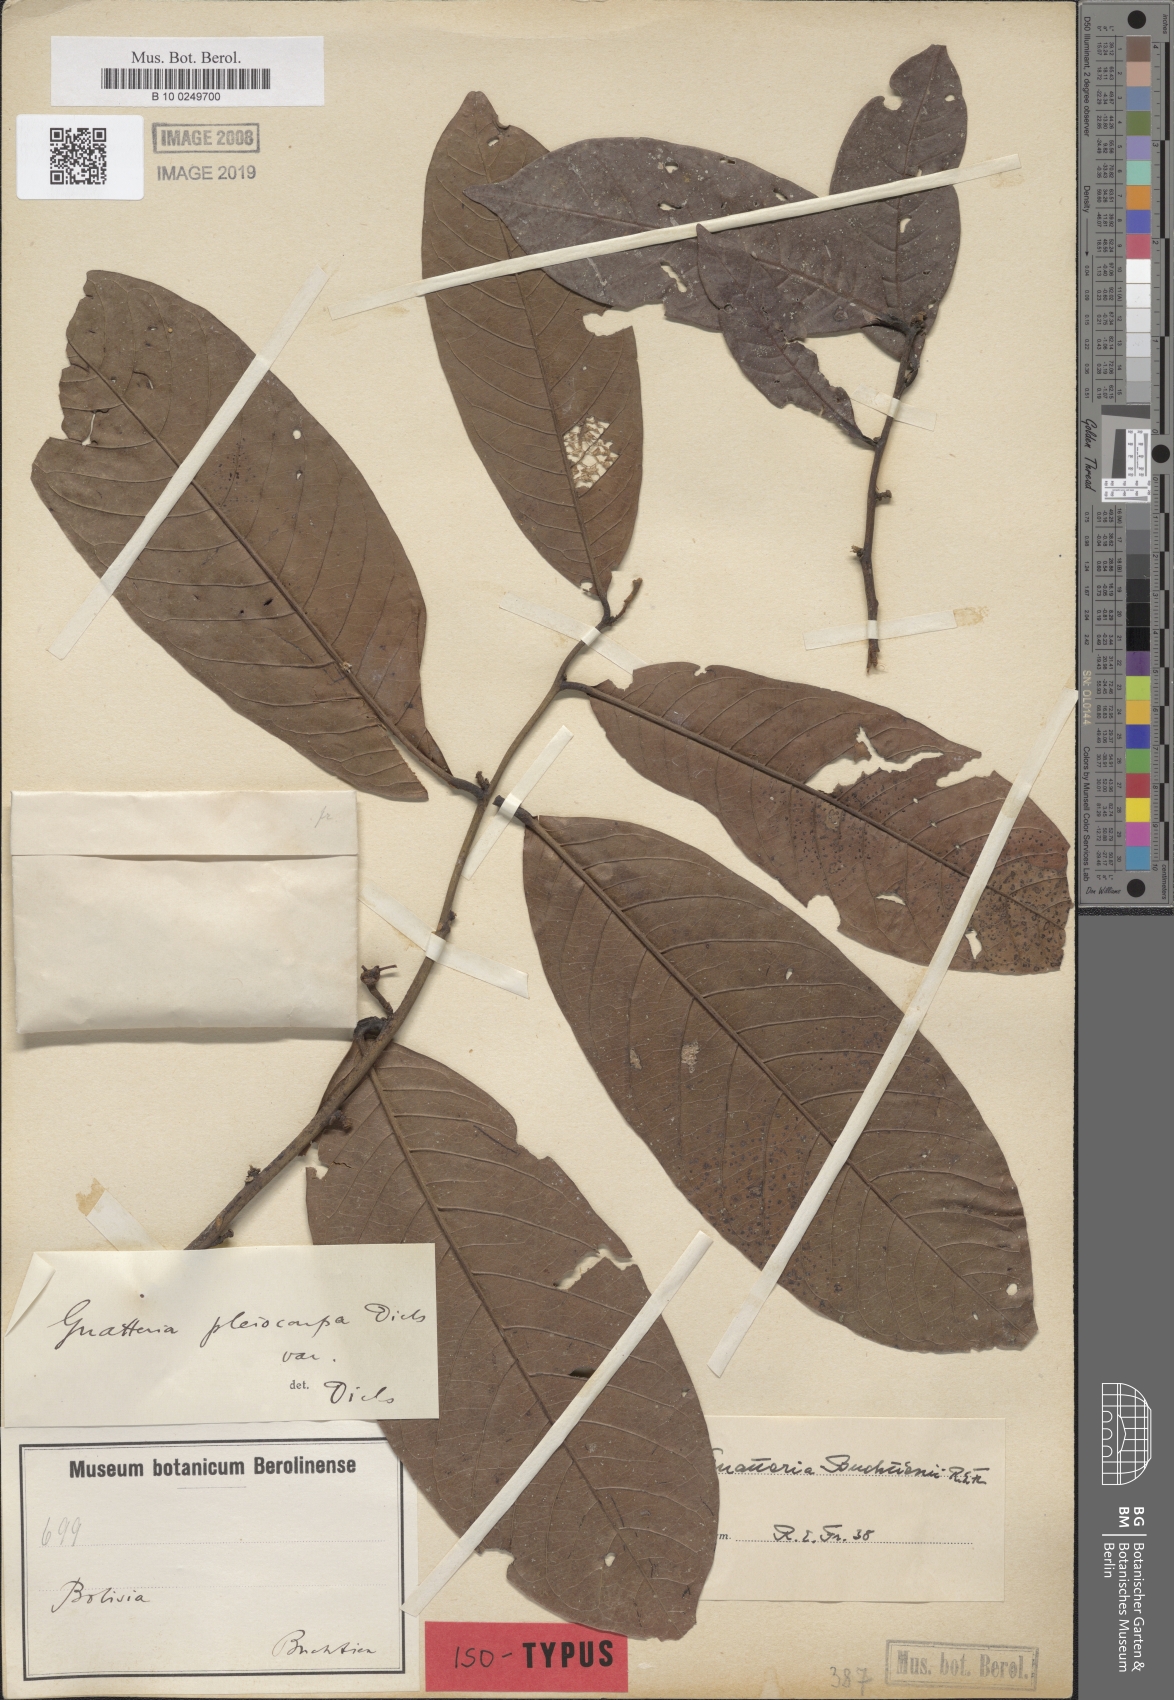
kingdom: Plantae
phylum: Tracheophyta
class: Magnoliopsida
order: Magnoliales
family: Annonaceae
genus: Guatteria
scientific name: Guatteria glauca
